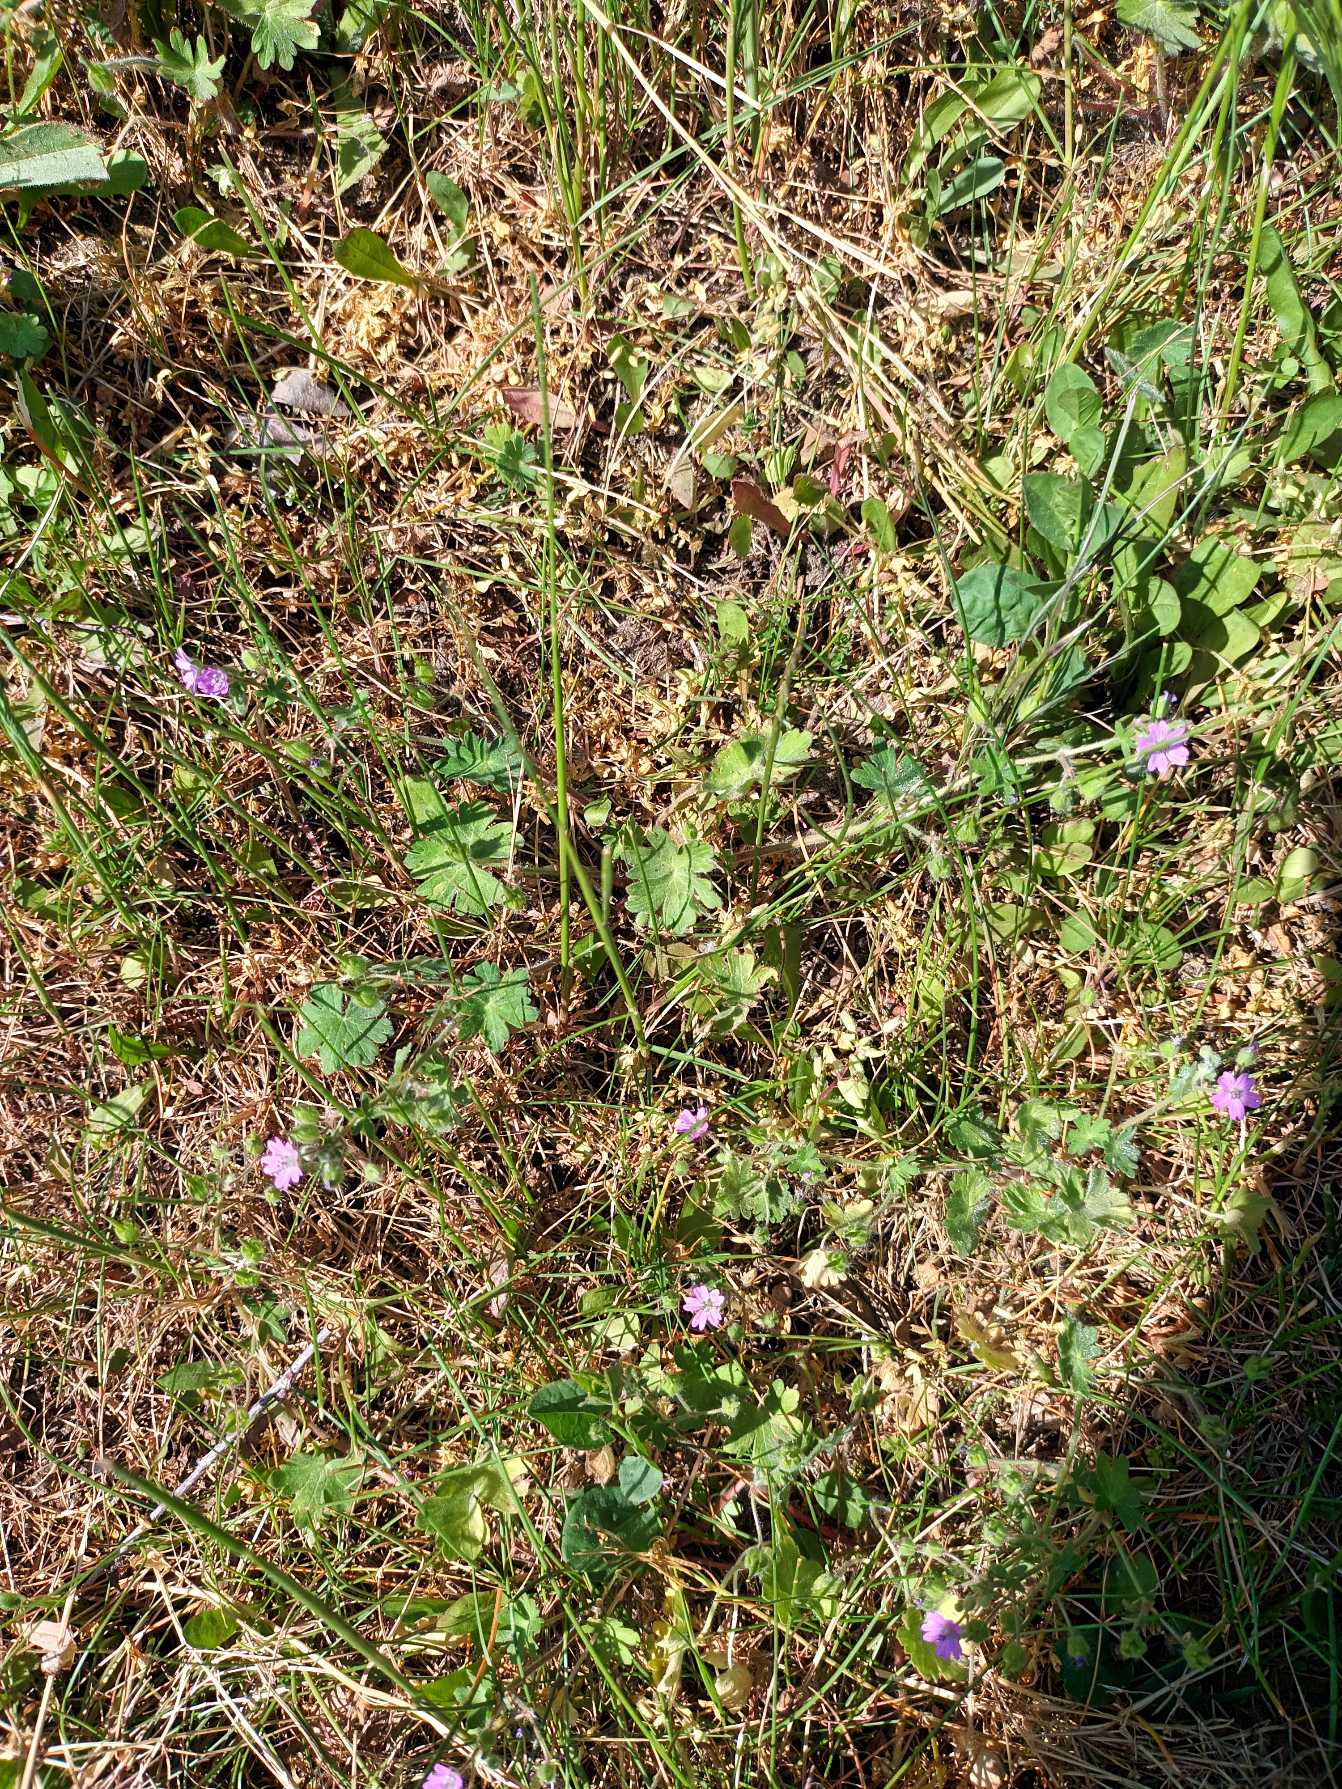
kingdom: Plantae
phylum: Tracheophyta
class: Magnoliopsida
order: Geraniales
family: Geraniaceae
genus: Geranium
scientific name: Geranium molle
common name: Blød storkenæb
